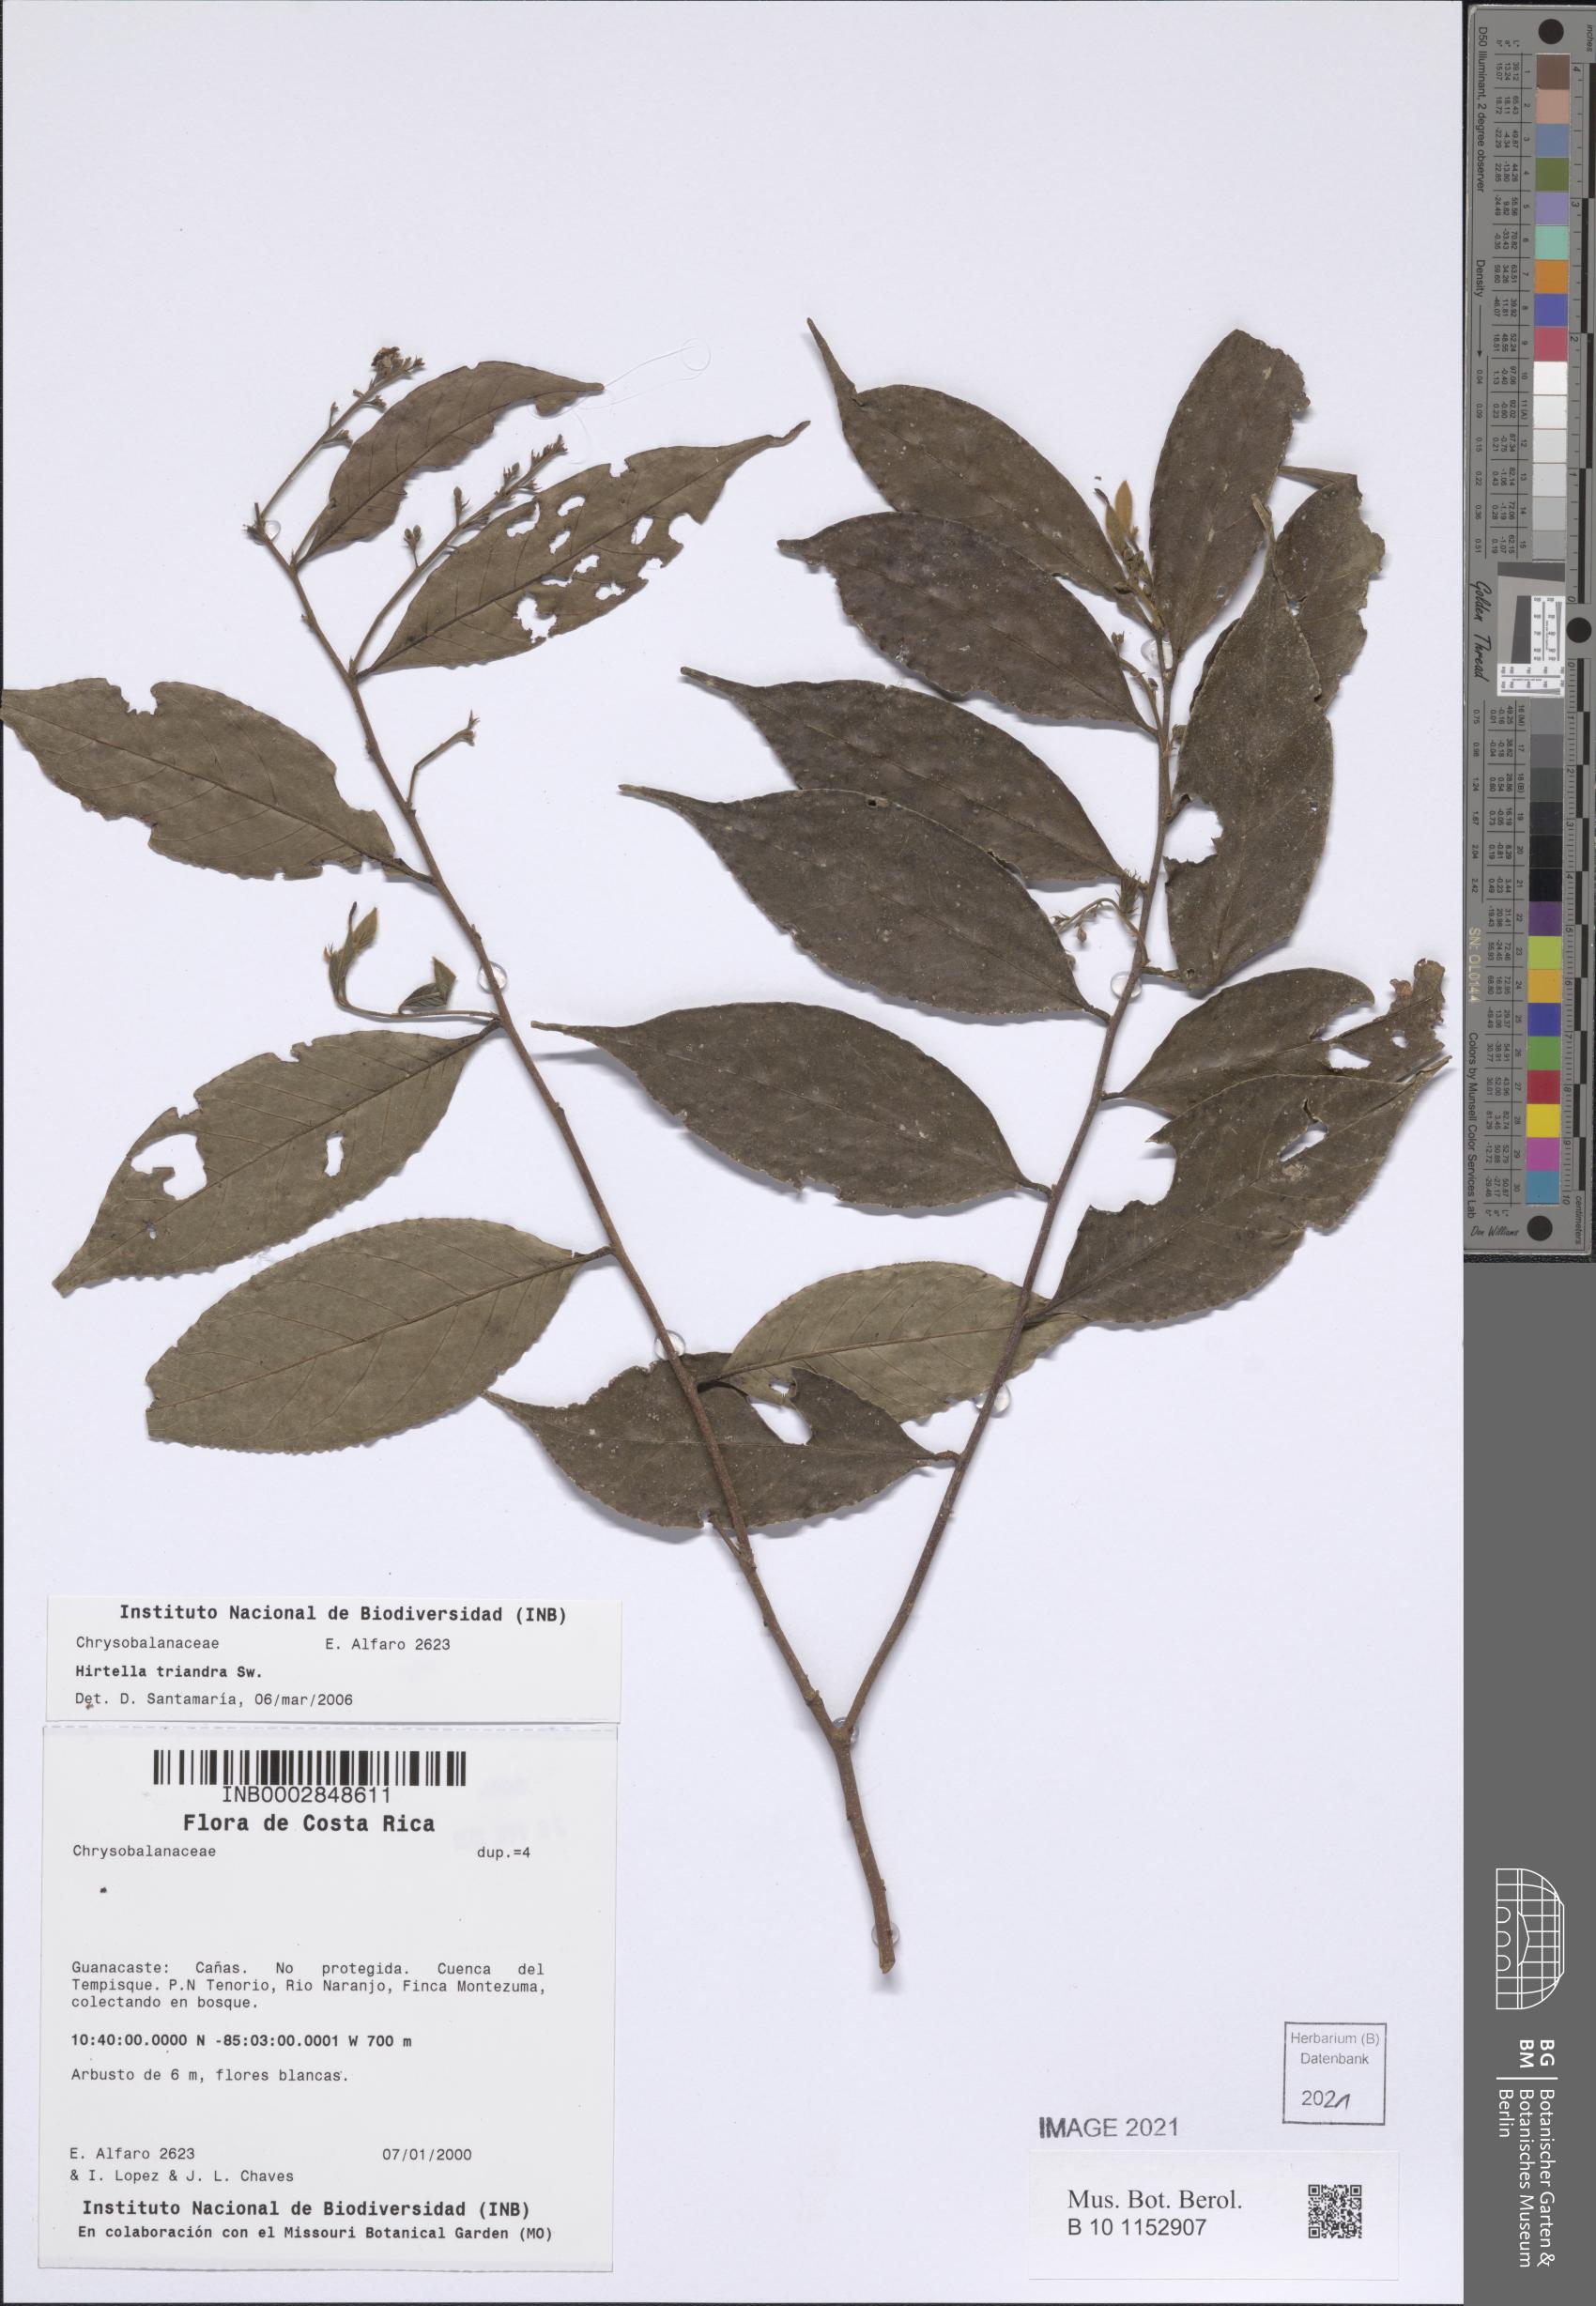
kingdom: Plantae
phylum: Tracheophyta
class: Magnoliopsida
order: Malpighiales
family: Chrysobalanaceae
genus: Hirtella
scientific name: Hirtella triandra
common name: Hairy plum
